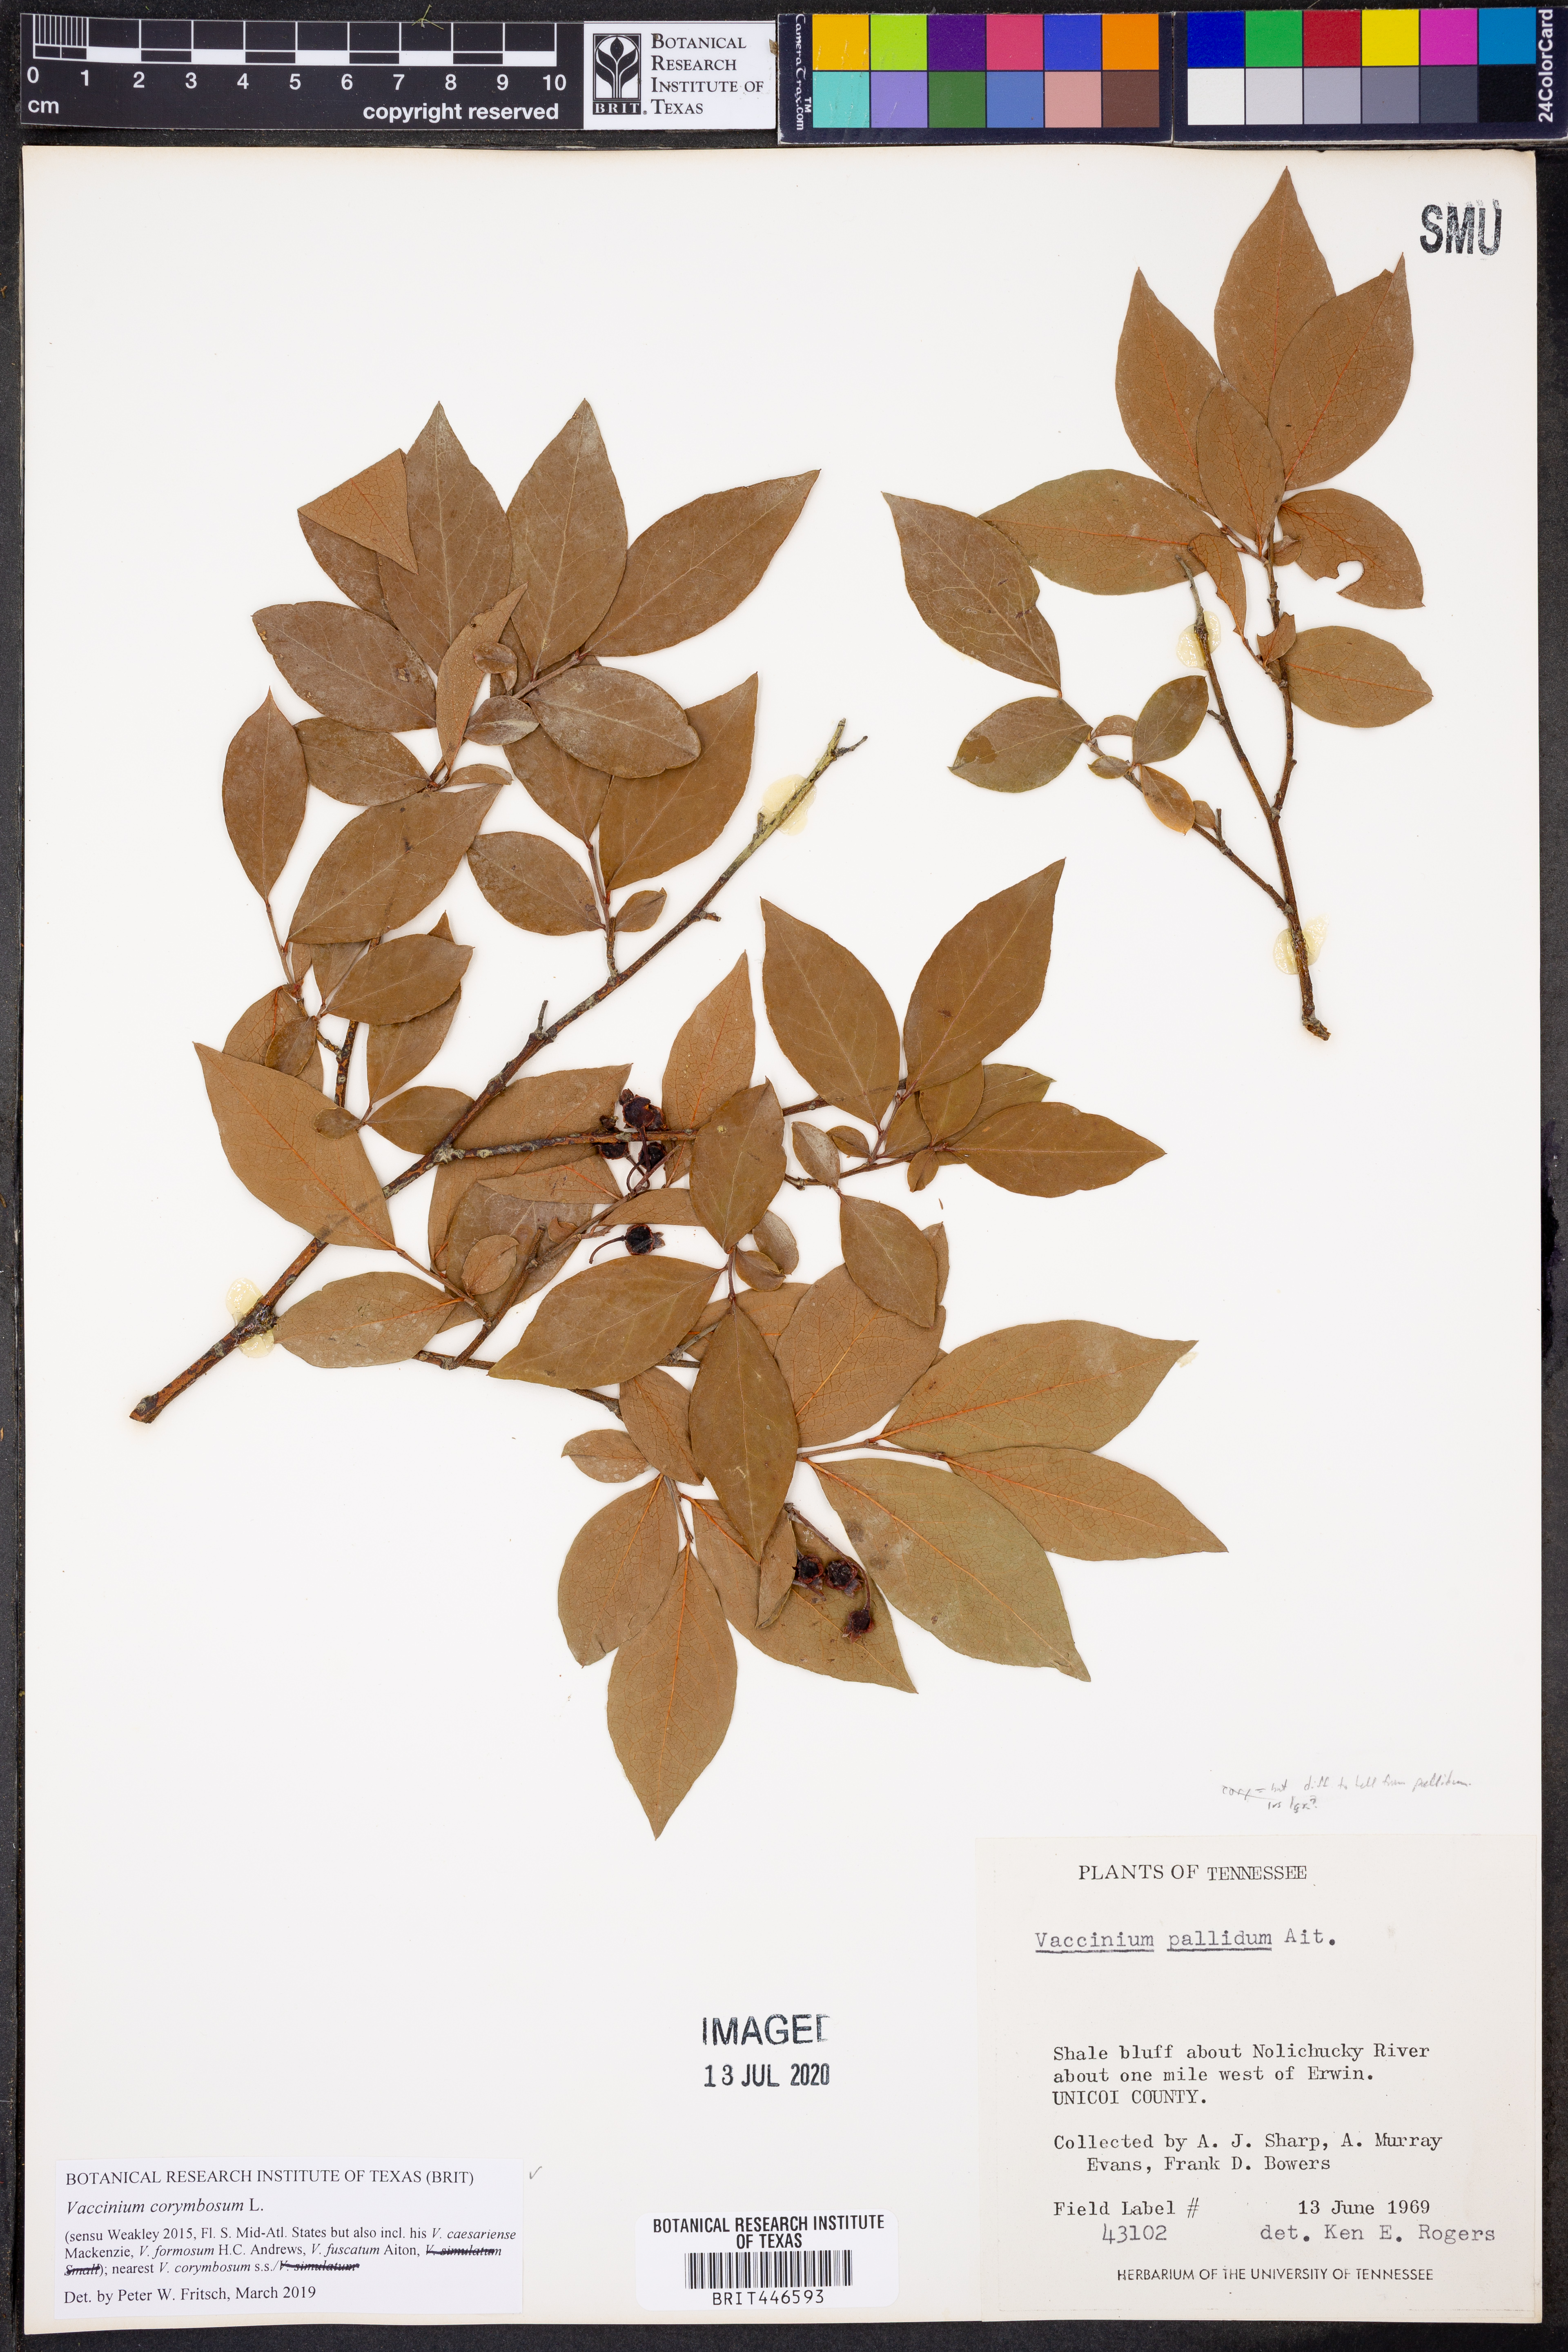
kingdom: Plantae
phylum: Tracheophyta
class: Magnoliopsida
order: Ericales
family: Ericaceae
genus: Vaccinium
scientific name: Vaccinium corymbosum
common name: Blueberry
